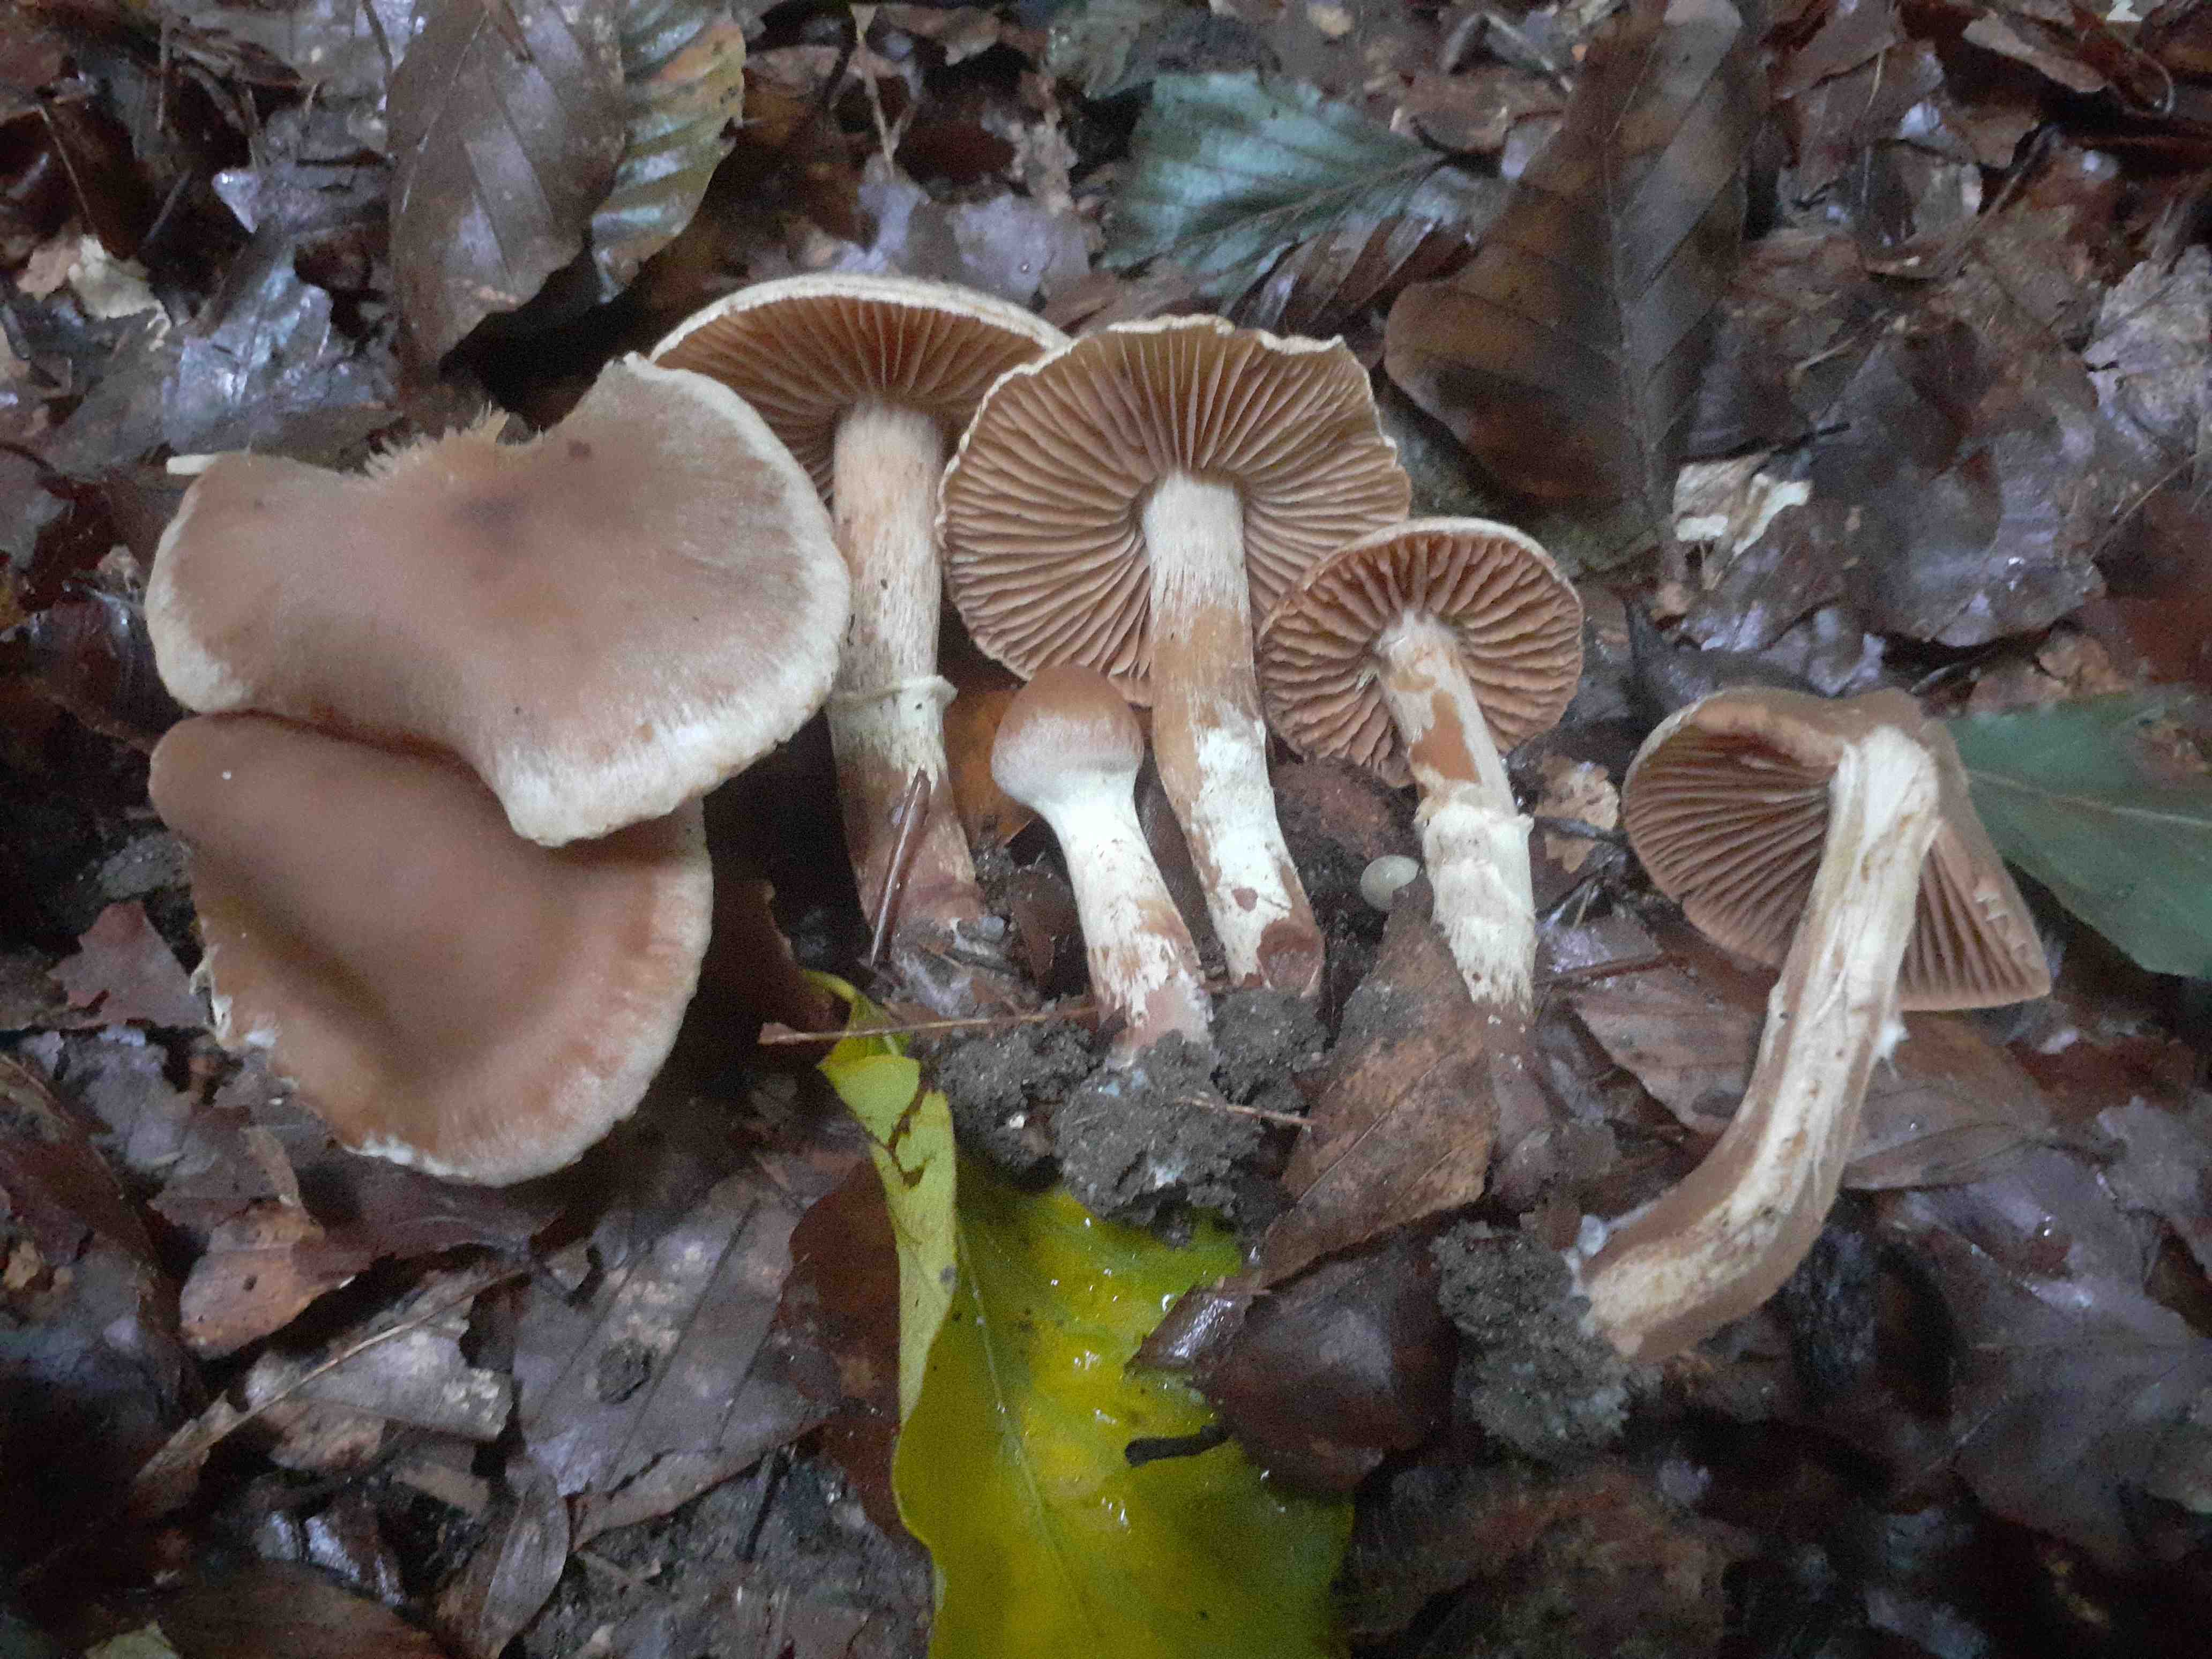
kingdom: Fungi
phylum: Basidiomycota
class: Agaricomycetes
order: Agaricales
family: Cortinariaceae
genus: Cortinarius
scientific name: Cortinarius semiodoratus
